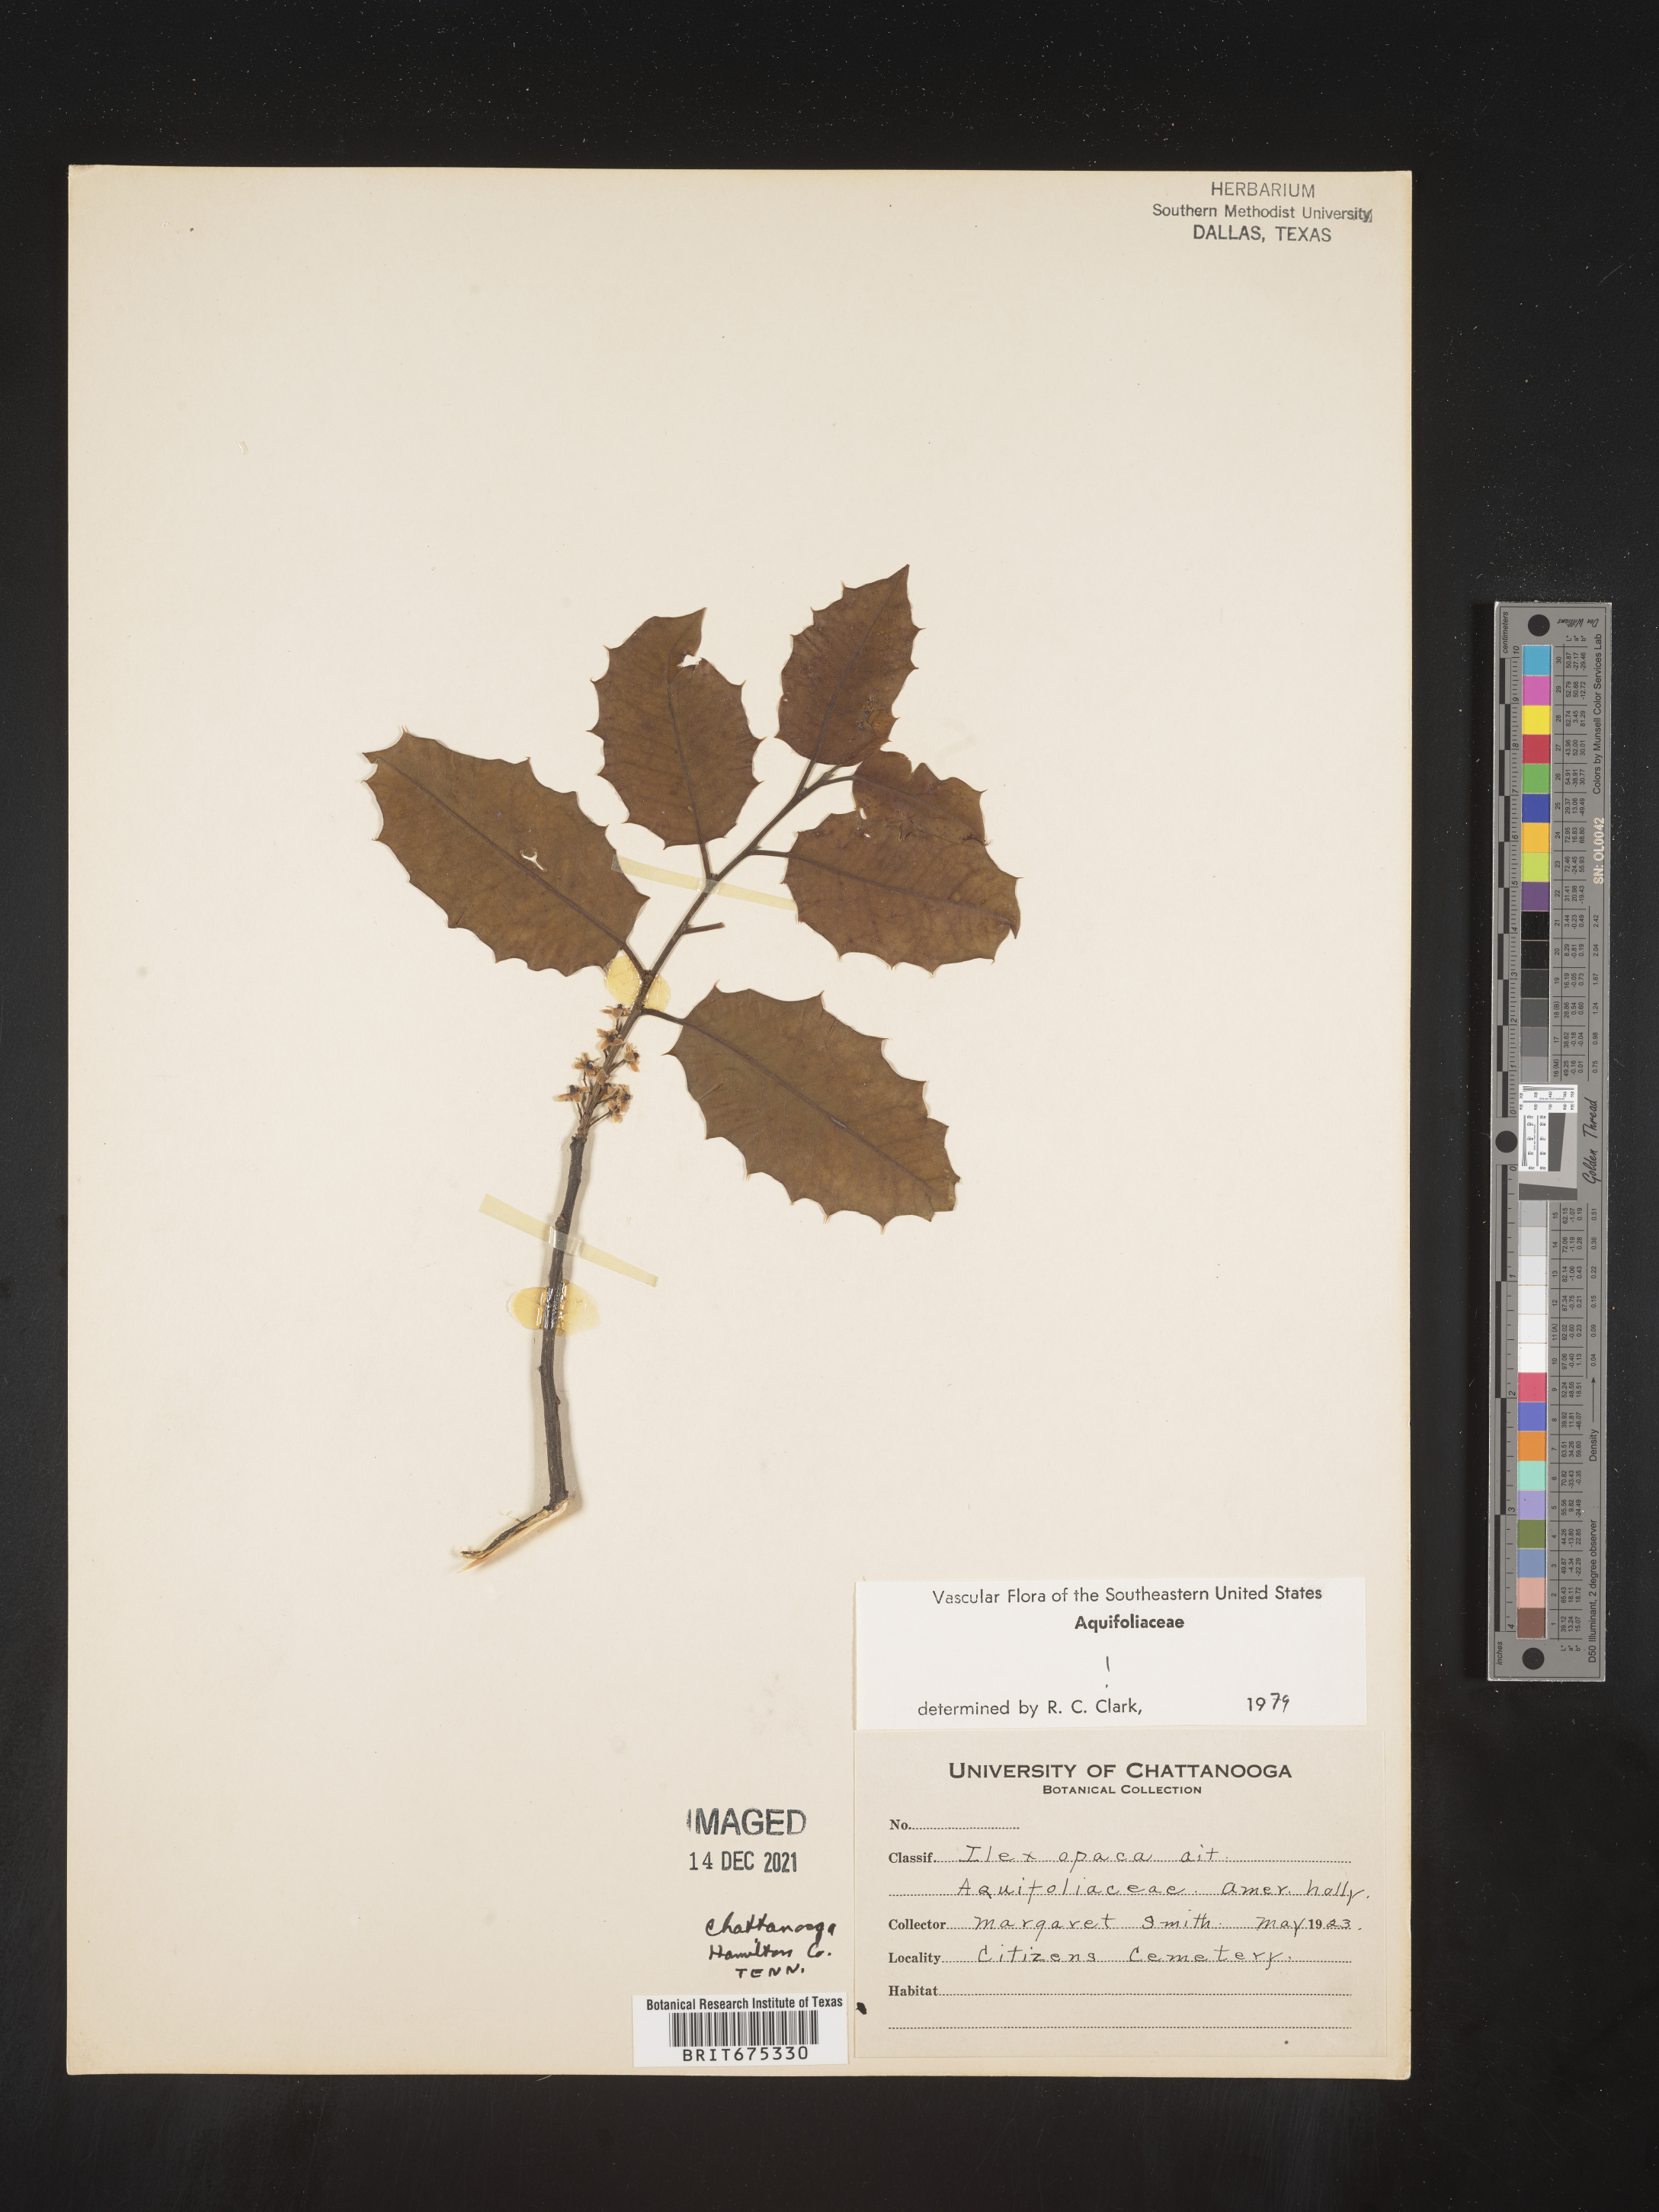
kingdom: Plantae
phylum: Tracheophyta
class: Magnoliopsida
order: Aquifoliales
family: Aquifoliaceae
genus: Ilex
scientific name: Ilex opaca
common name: American holly
